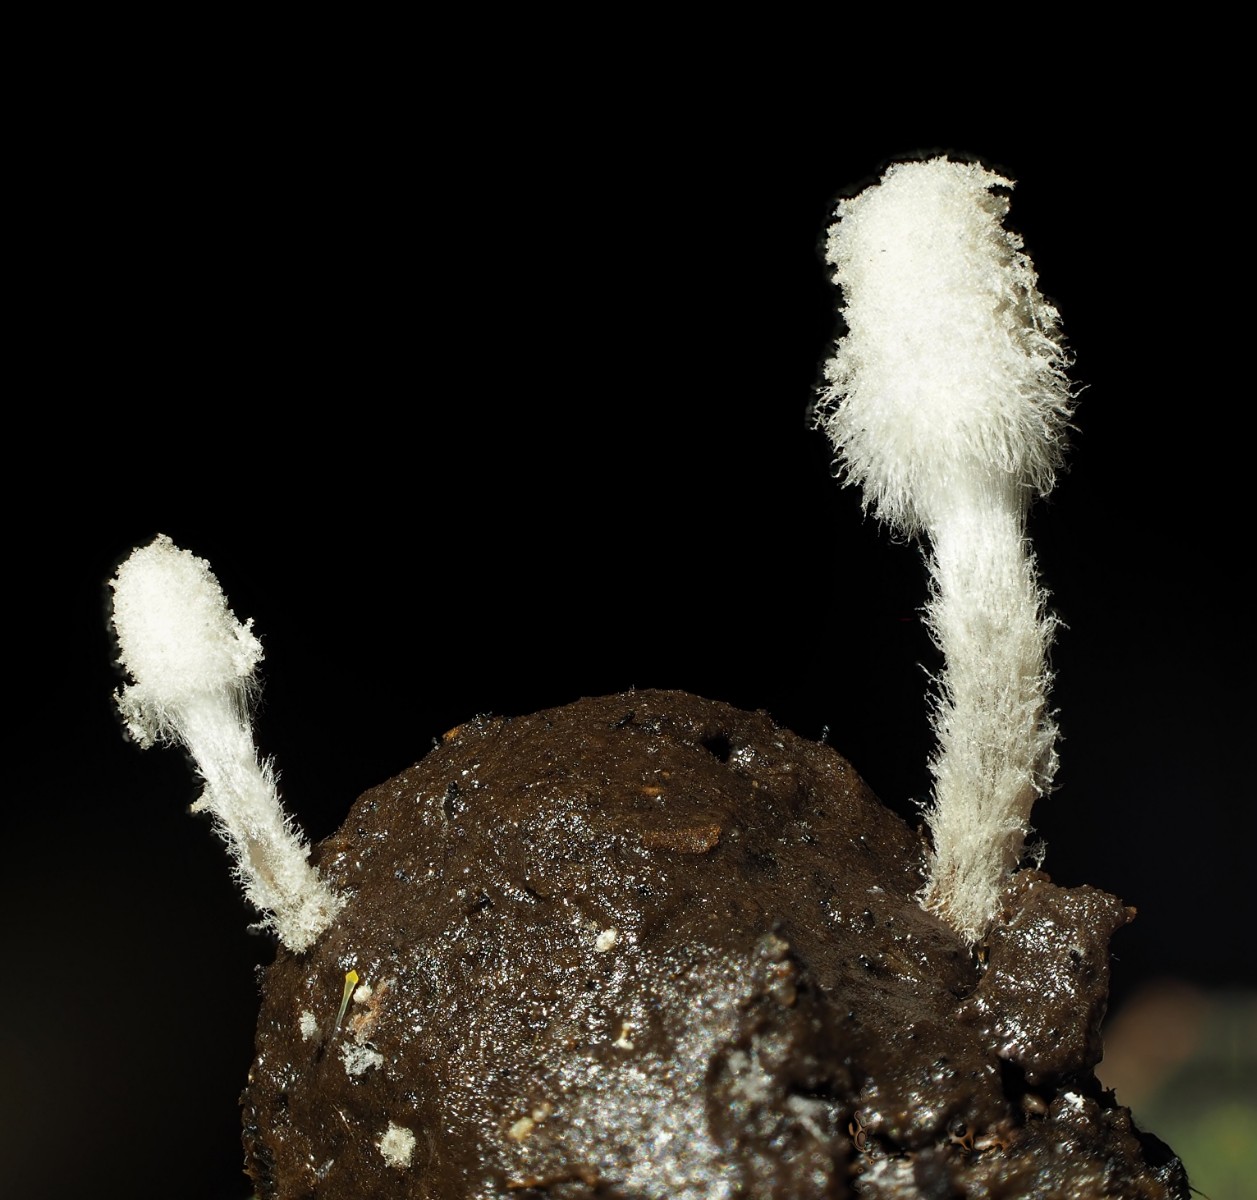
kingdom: Fungi
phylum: Basidiomycota
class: Agaricomycetes
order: Agaricales
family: Psathyrellaceae
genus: Coprinopsis
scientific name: Coprinopsis stercorea
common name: pjusket blækhat
